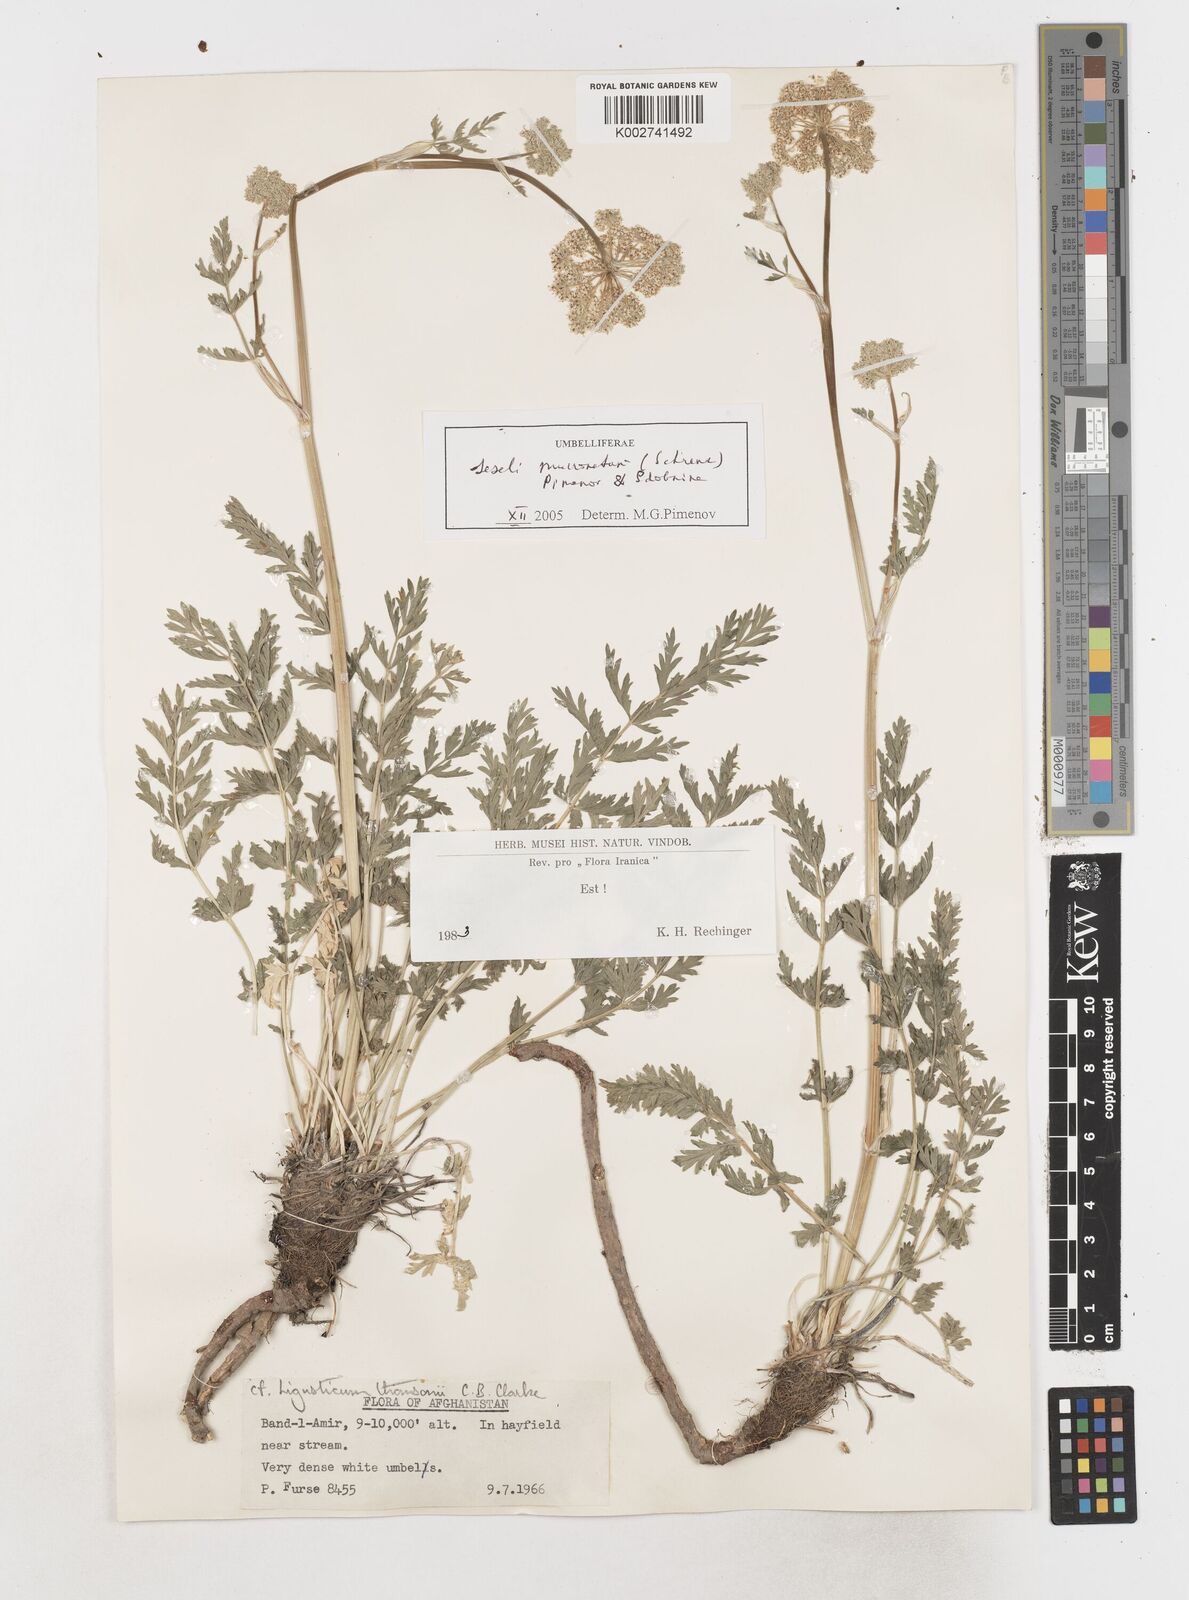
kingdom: Plantae
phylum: Tracheophyta
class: Magnoliopsida
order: Apiales
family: Apiaceae
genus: Seseli
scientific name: Seseli mucronatum
